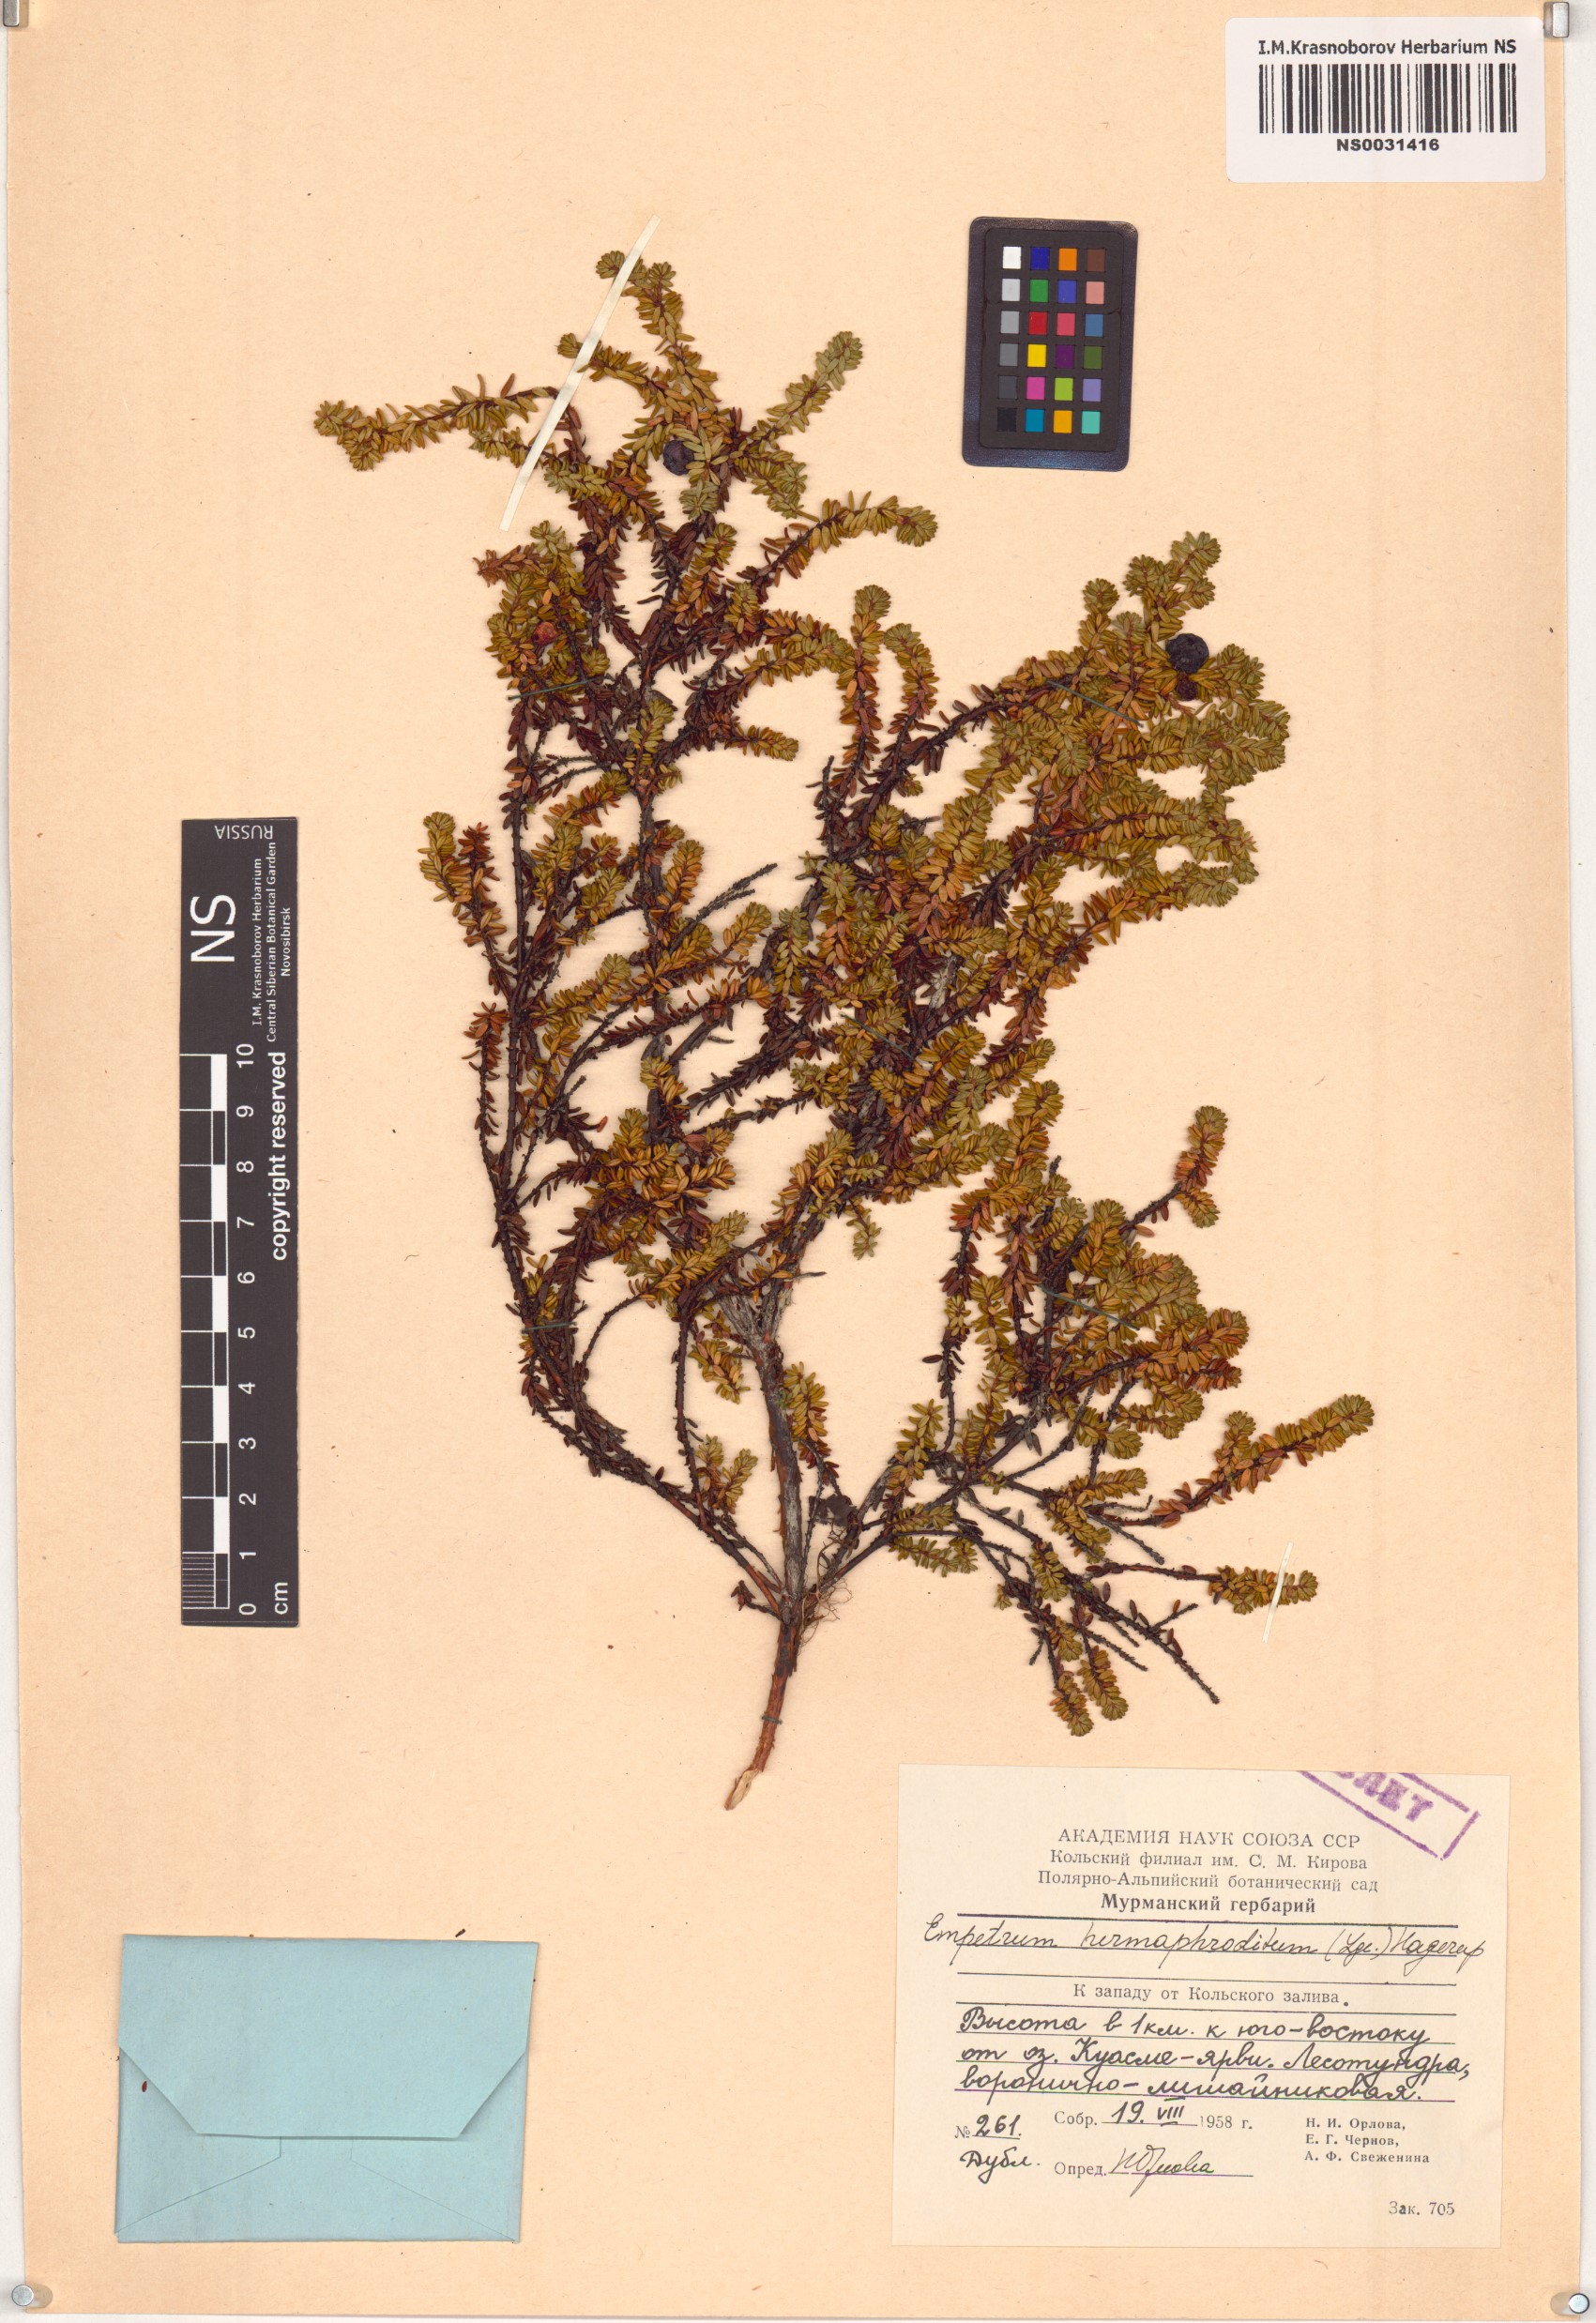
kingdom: Plantae
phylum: Tracheophyta
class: Magnoliopsida
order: Ericales
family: Ericaceae
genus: Empetrum
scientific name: Empetrum hermaphroditum
